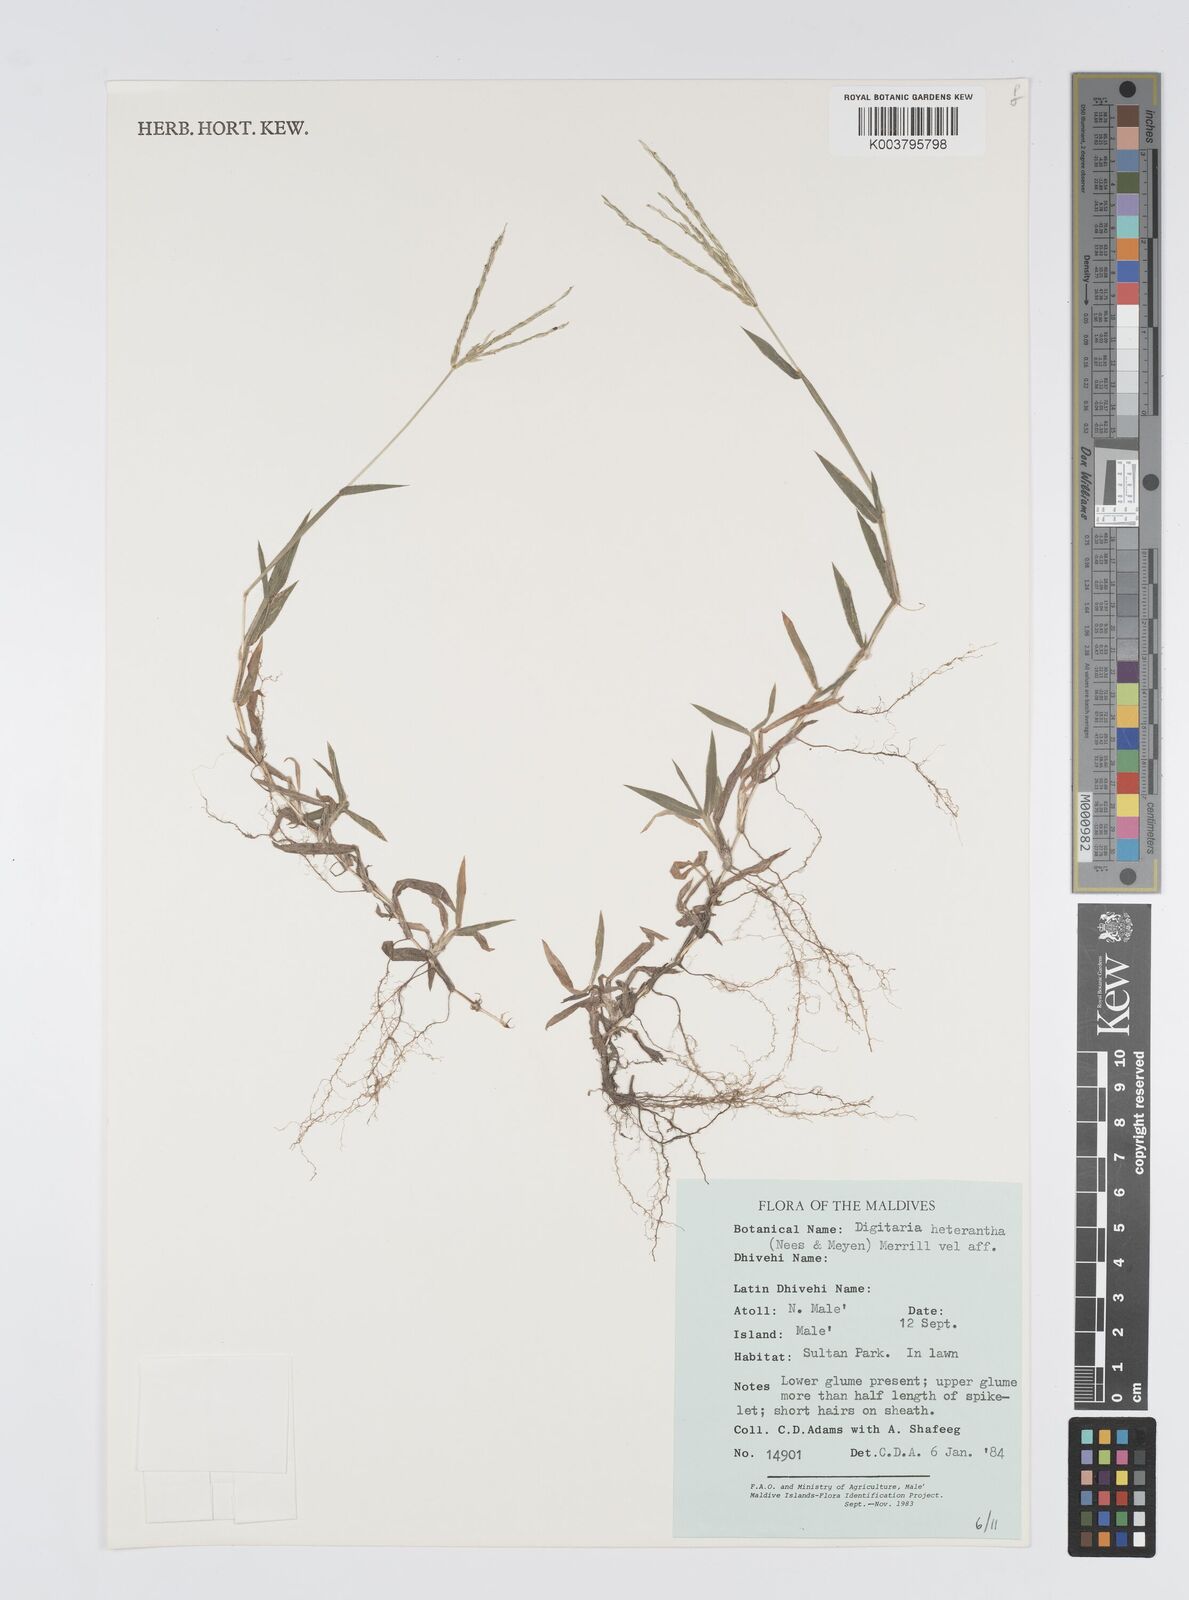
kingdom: Plantae
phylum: Tracheophyta
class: Liliopsida
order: Poales
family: Poaceae
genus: Digitaria
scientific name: Digitaria
